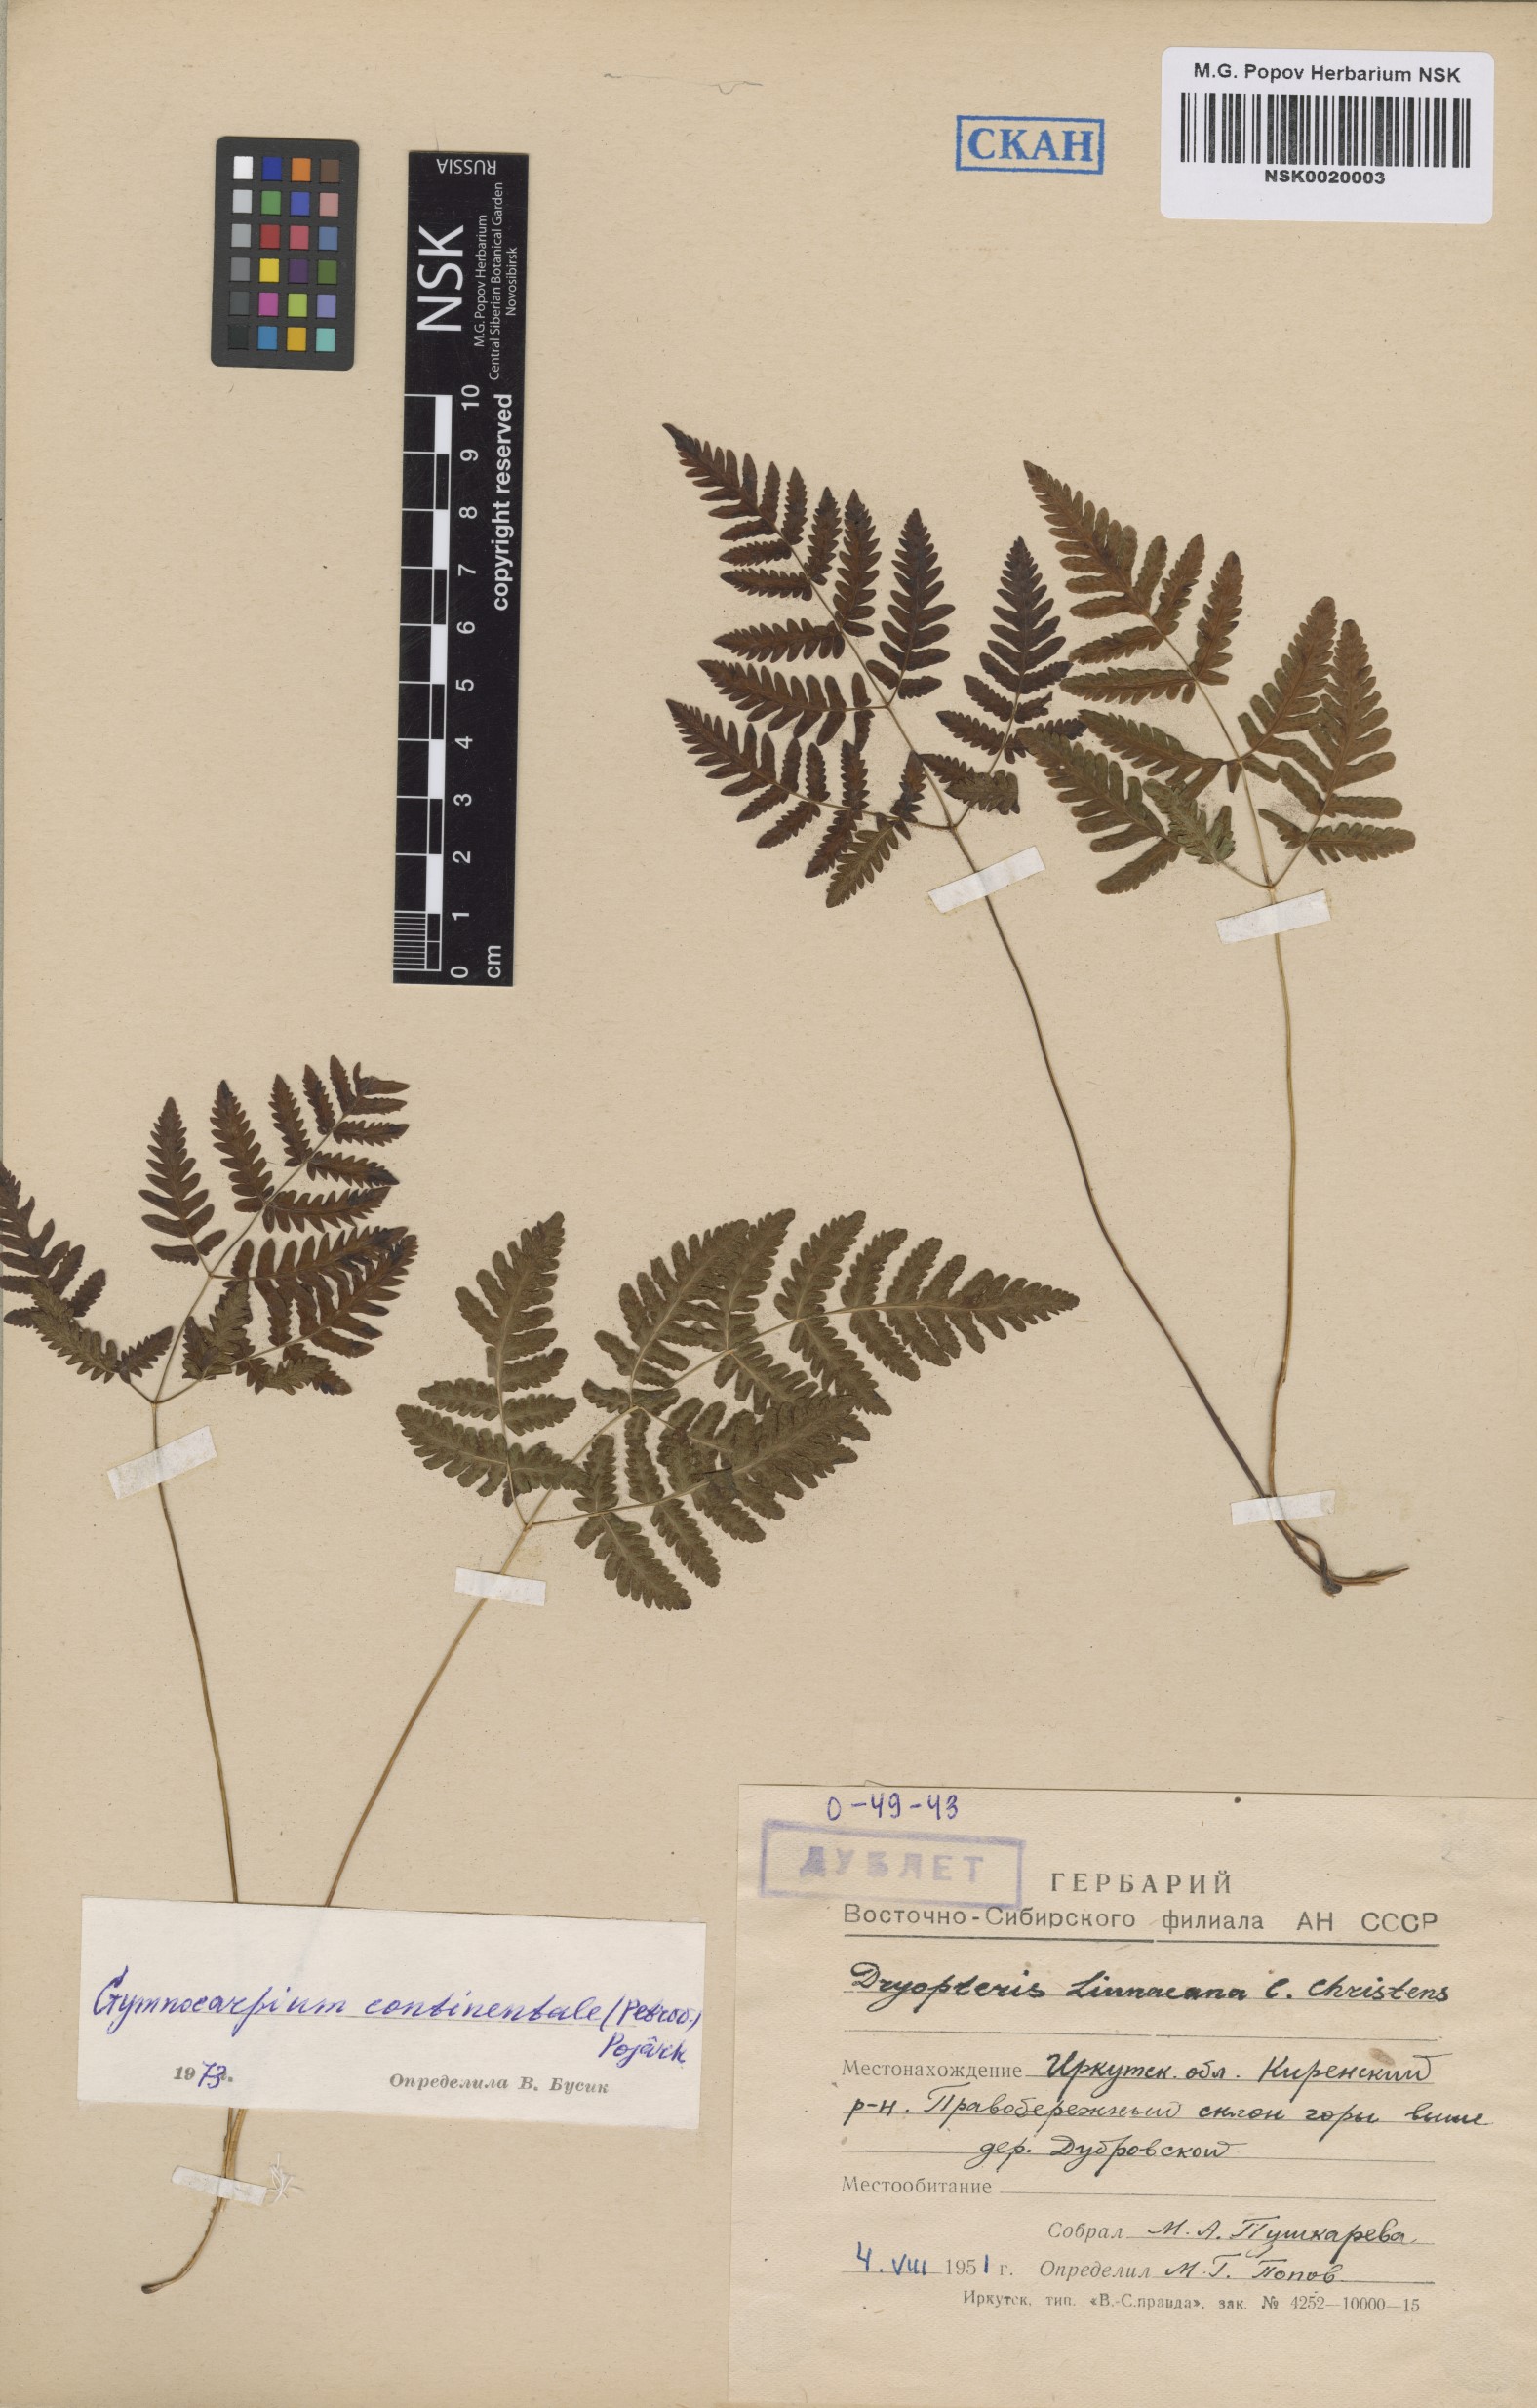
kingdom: Plantae
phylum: Tracheophyta
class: Polypodiopsida
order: Polypodiales
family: Cystopteridaceae
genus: Gymnocarpium
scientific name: Gymnocarpium continentale
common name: Asian oak fern
